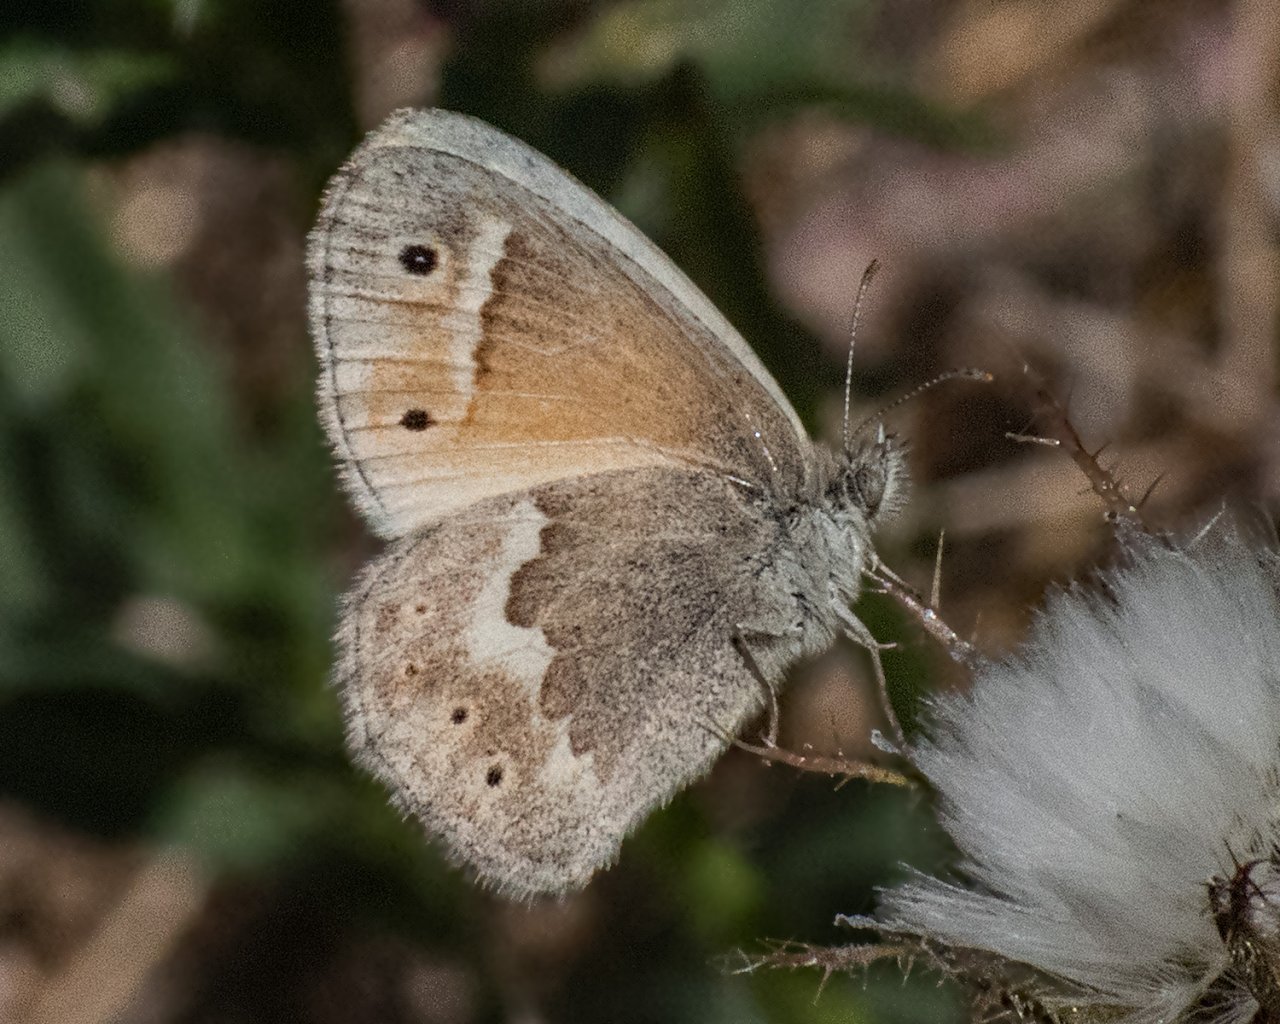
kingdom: Animalia
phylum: Arthropoda
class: Insecta
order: Lepidoptera
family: Nymphalidae
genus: Coenonympha
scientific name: Coenonympha tullia
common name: Large Heath
